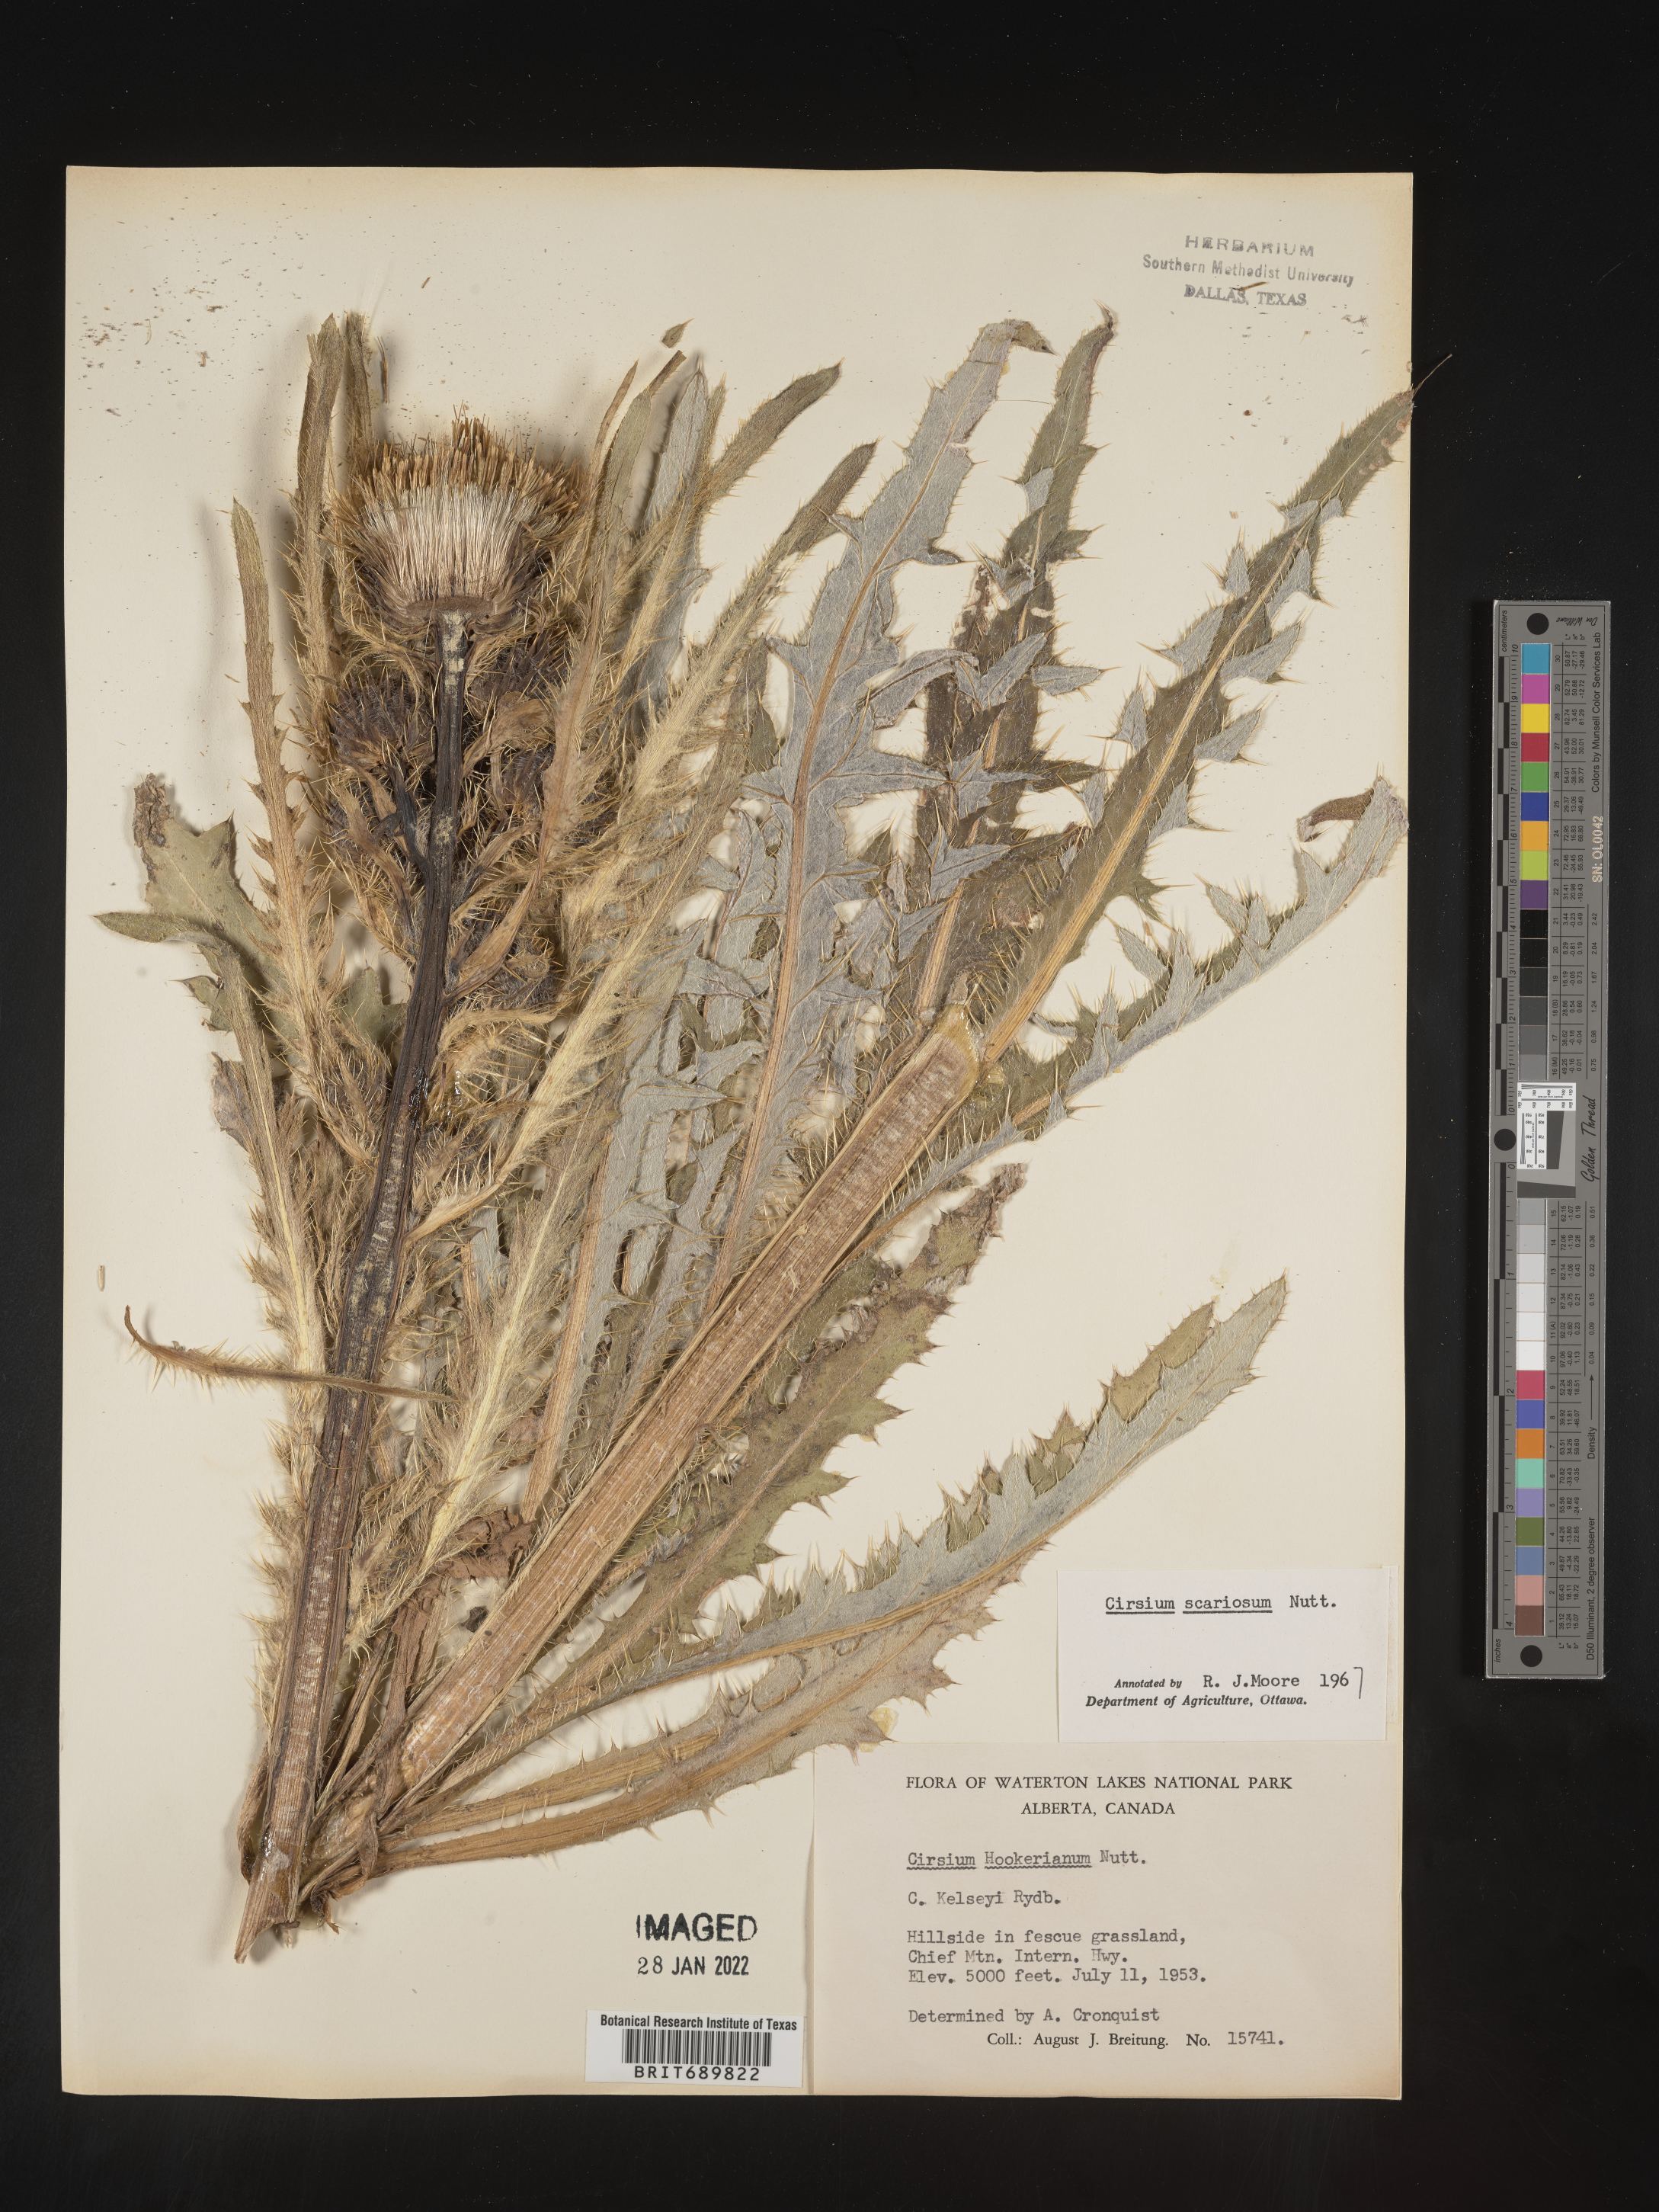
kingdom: Plantae
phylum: Tracheophyta
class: Magnoliopsida
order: Asterales
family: Asteraceae
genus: Cirsium
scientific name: Cirsium scariosum
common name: Meadow thistle
